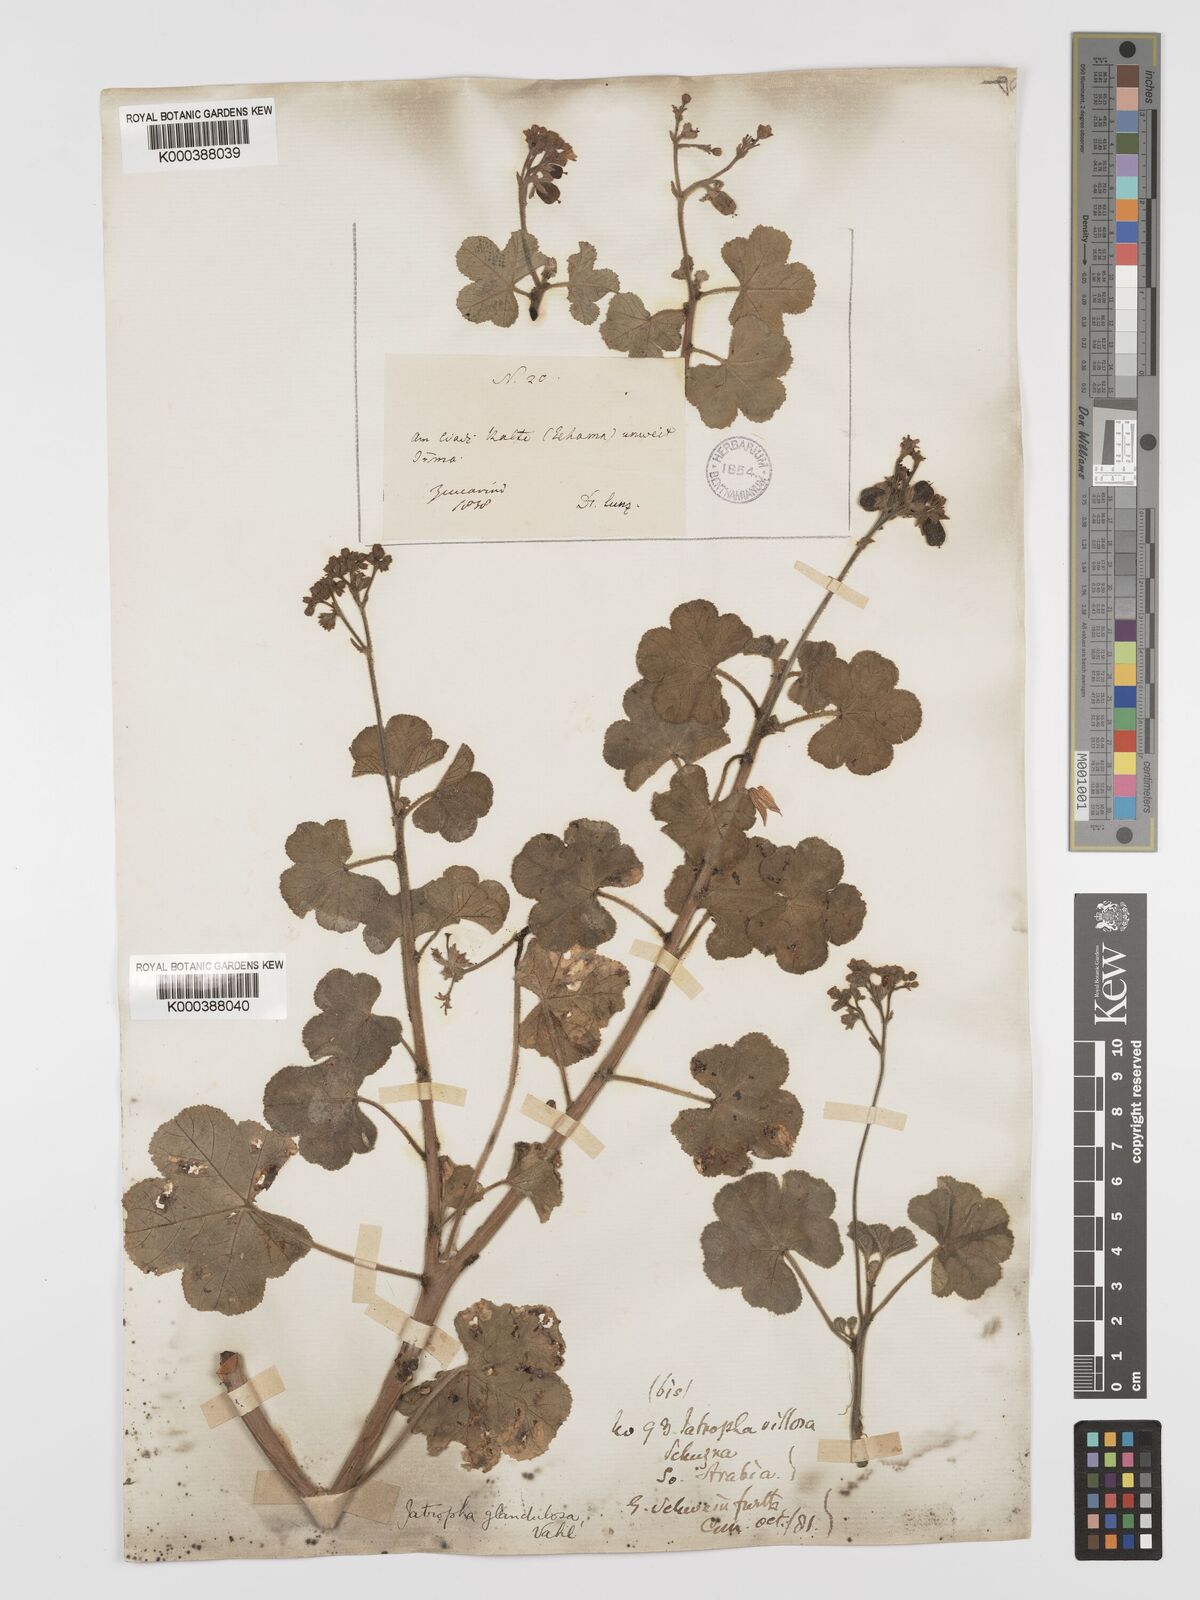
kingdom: Plantae
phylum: Tracheophyta
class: Magnoliopsida
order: Malpighiales
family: Euphorbiaceae
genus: Jatropha
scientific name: Jatropha pelargoniifolia
